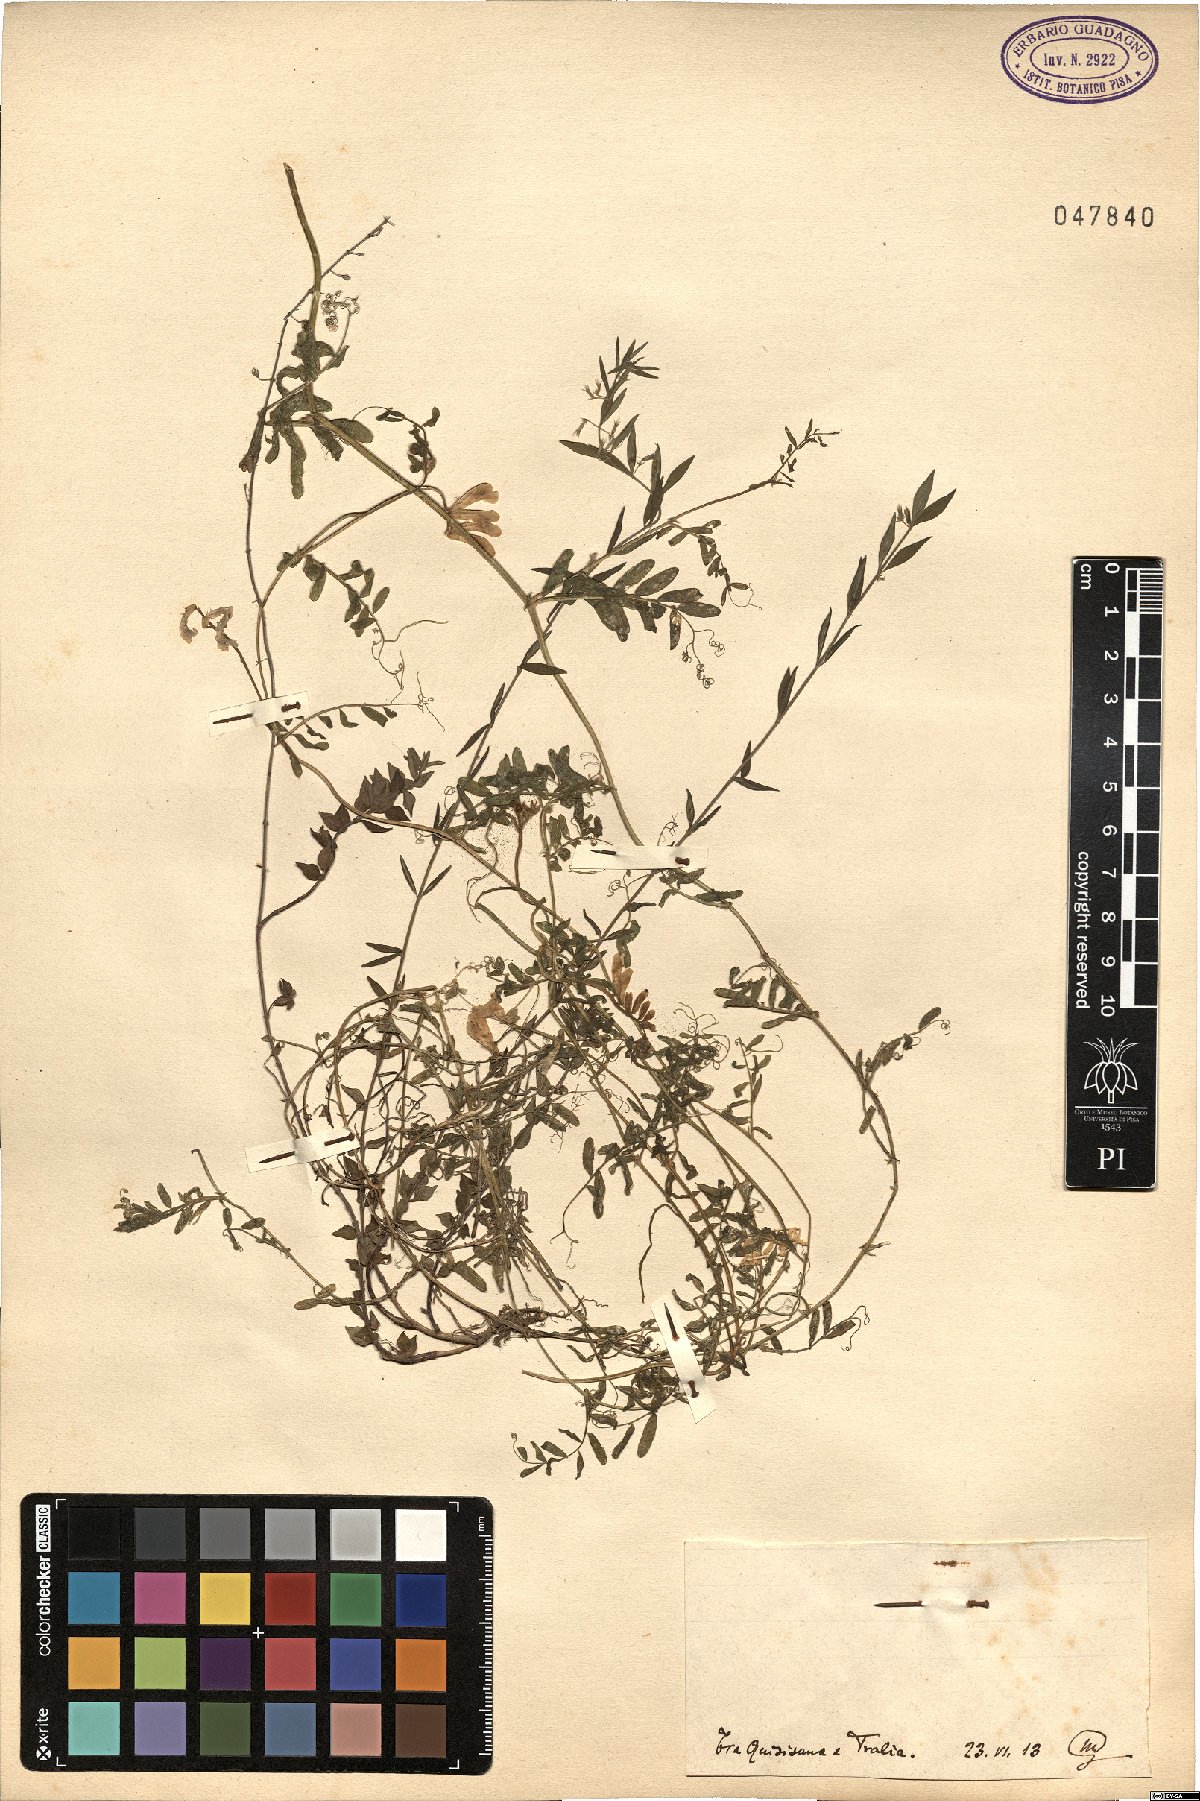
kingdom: Plantae
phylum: Tracheophyta
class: Magnoliopsida
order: Fabales
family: Fabaceae
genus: Vicia
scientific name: Vicia
